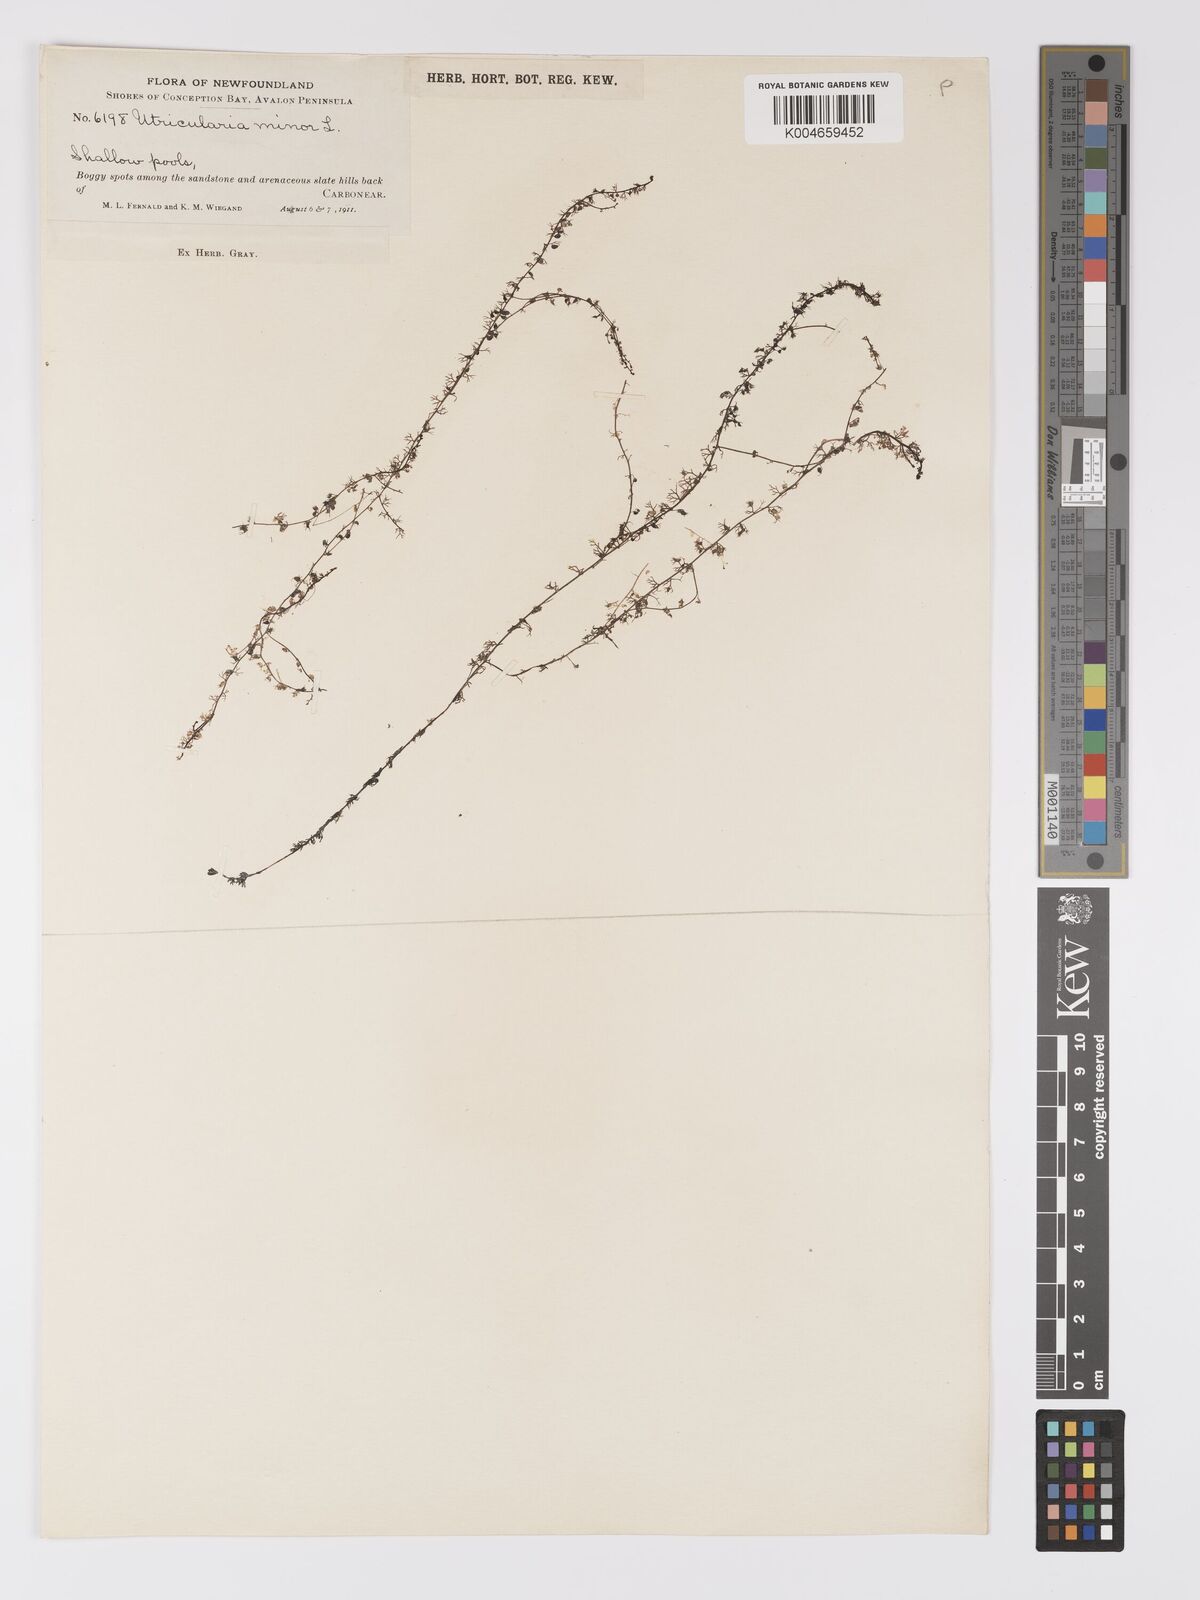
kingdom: Plantae
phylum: Tracheophyta
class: Magnoliopsida
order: Lamiales
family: Lentibulariaceae
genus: Utricularia
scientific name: Utricularia minor
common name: Lesser bladderwort
